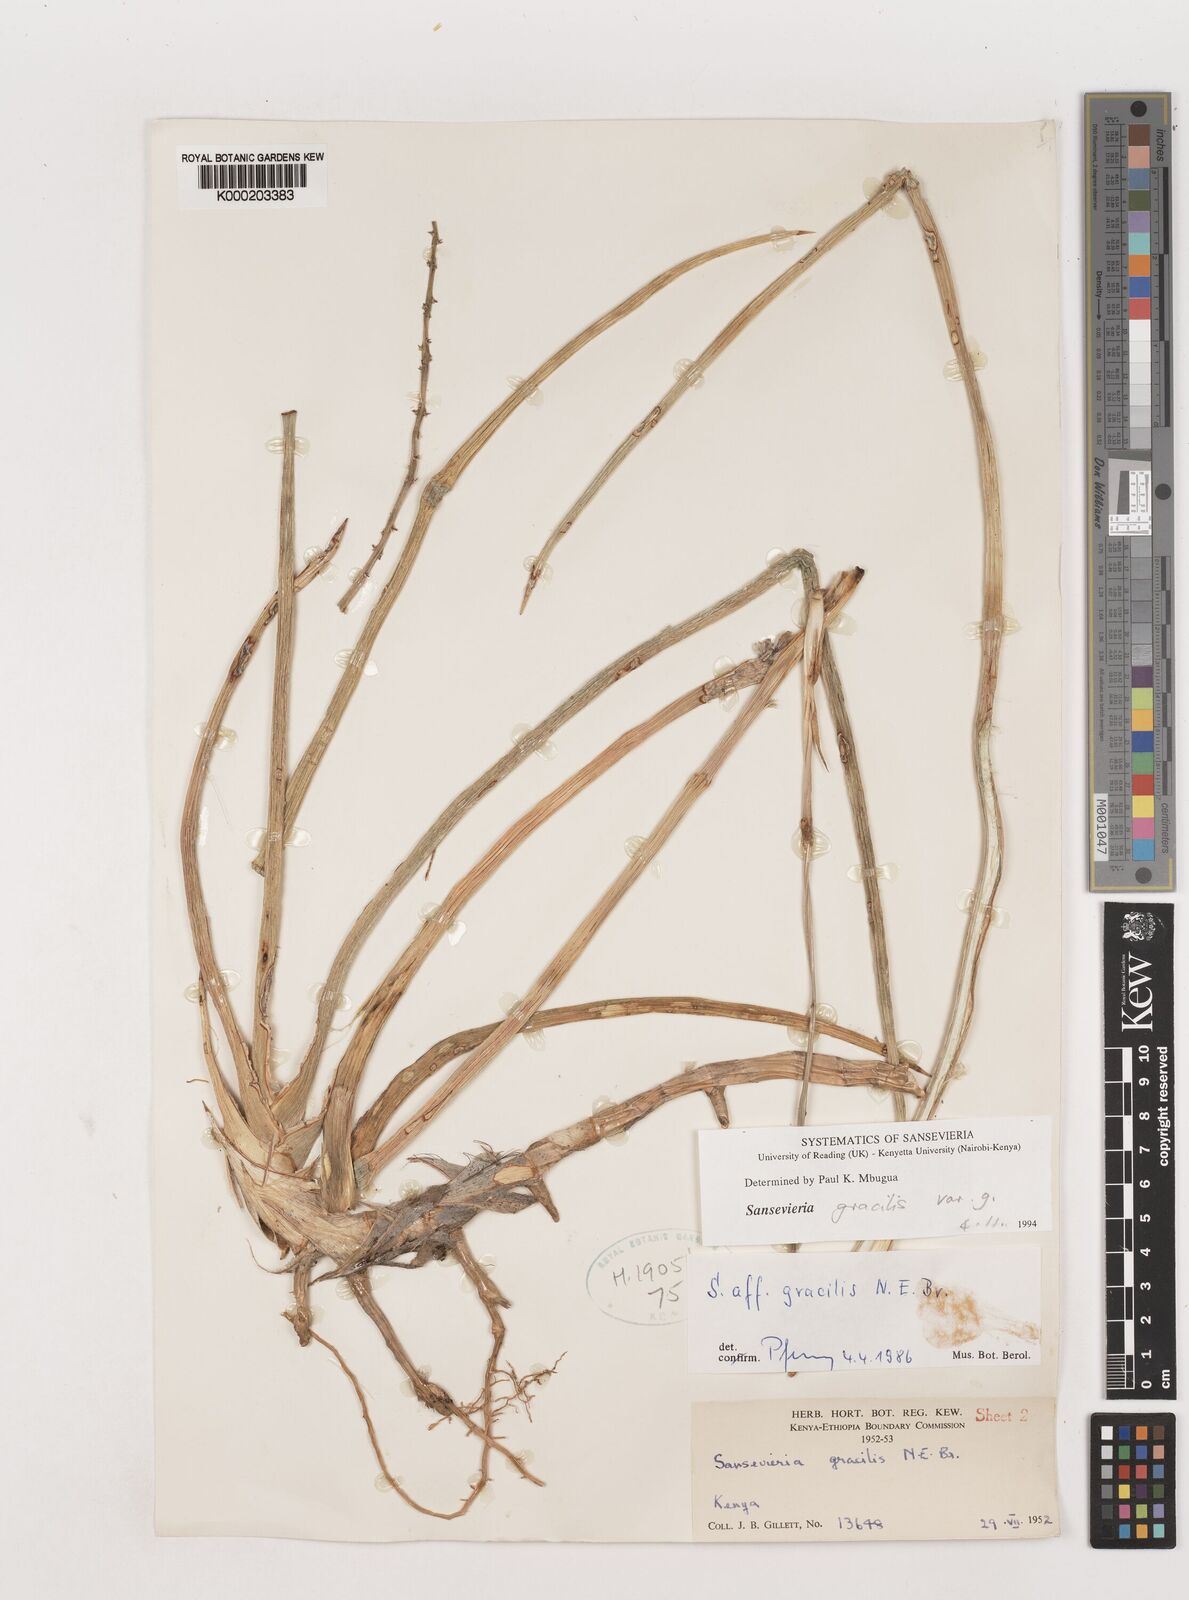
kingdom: Plantae
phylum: Tracheophyta
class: Liliopsida
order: Asparagales
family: Asparagaceae
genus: Dracaena
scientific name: Dracaena serpenta
